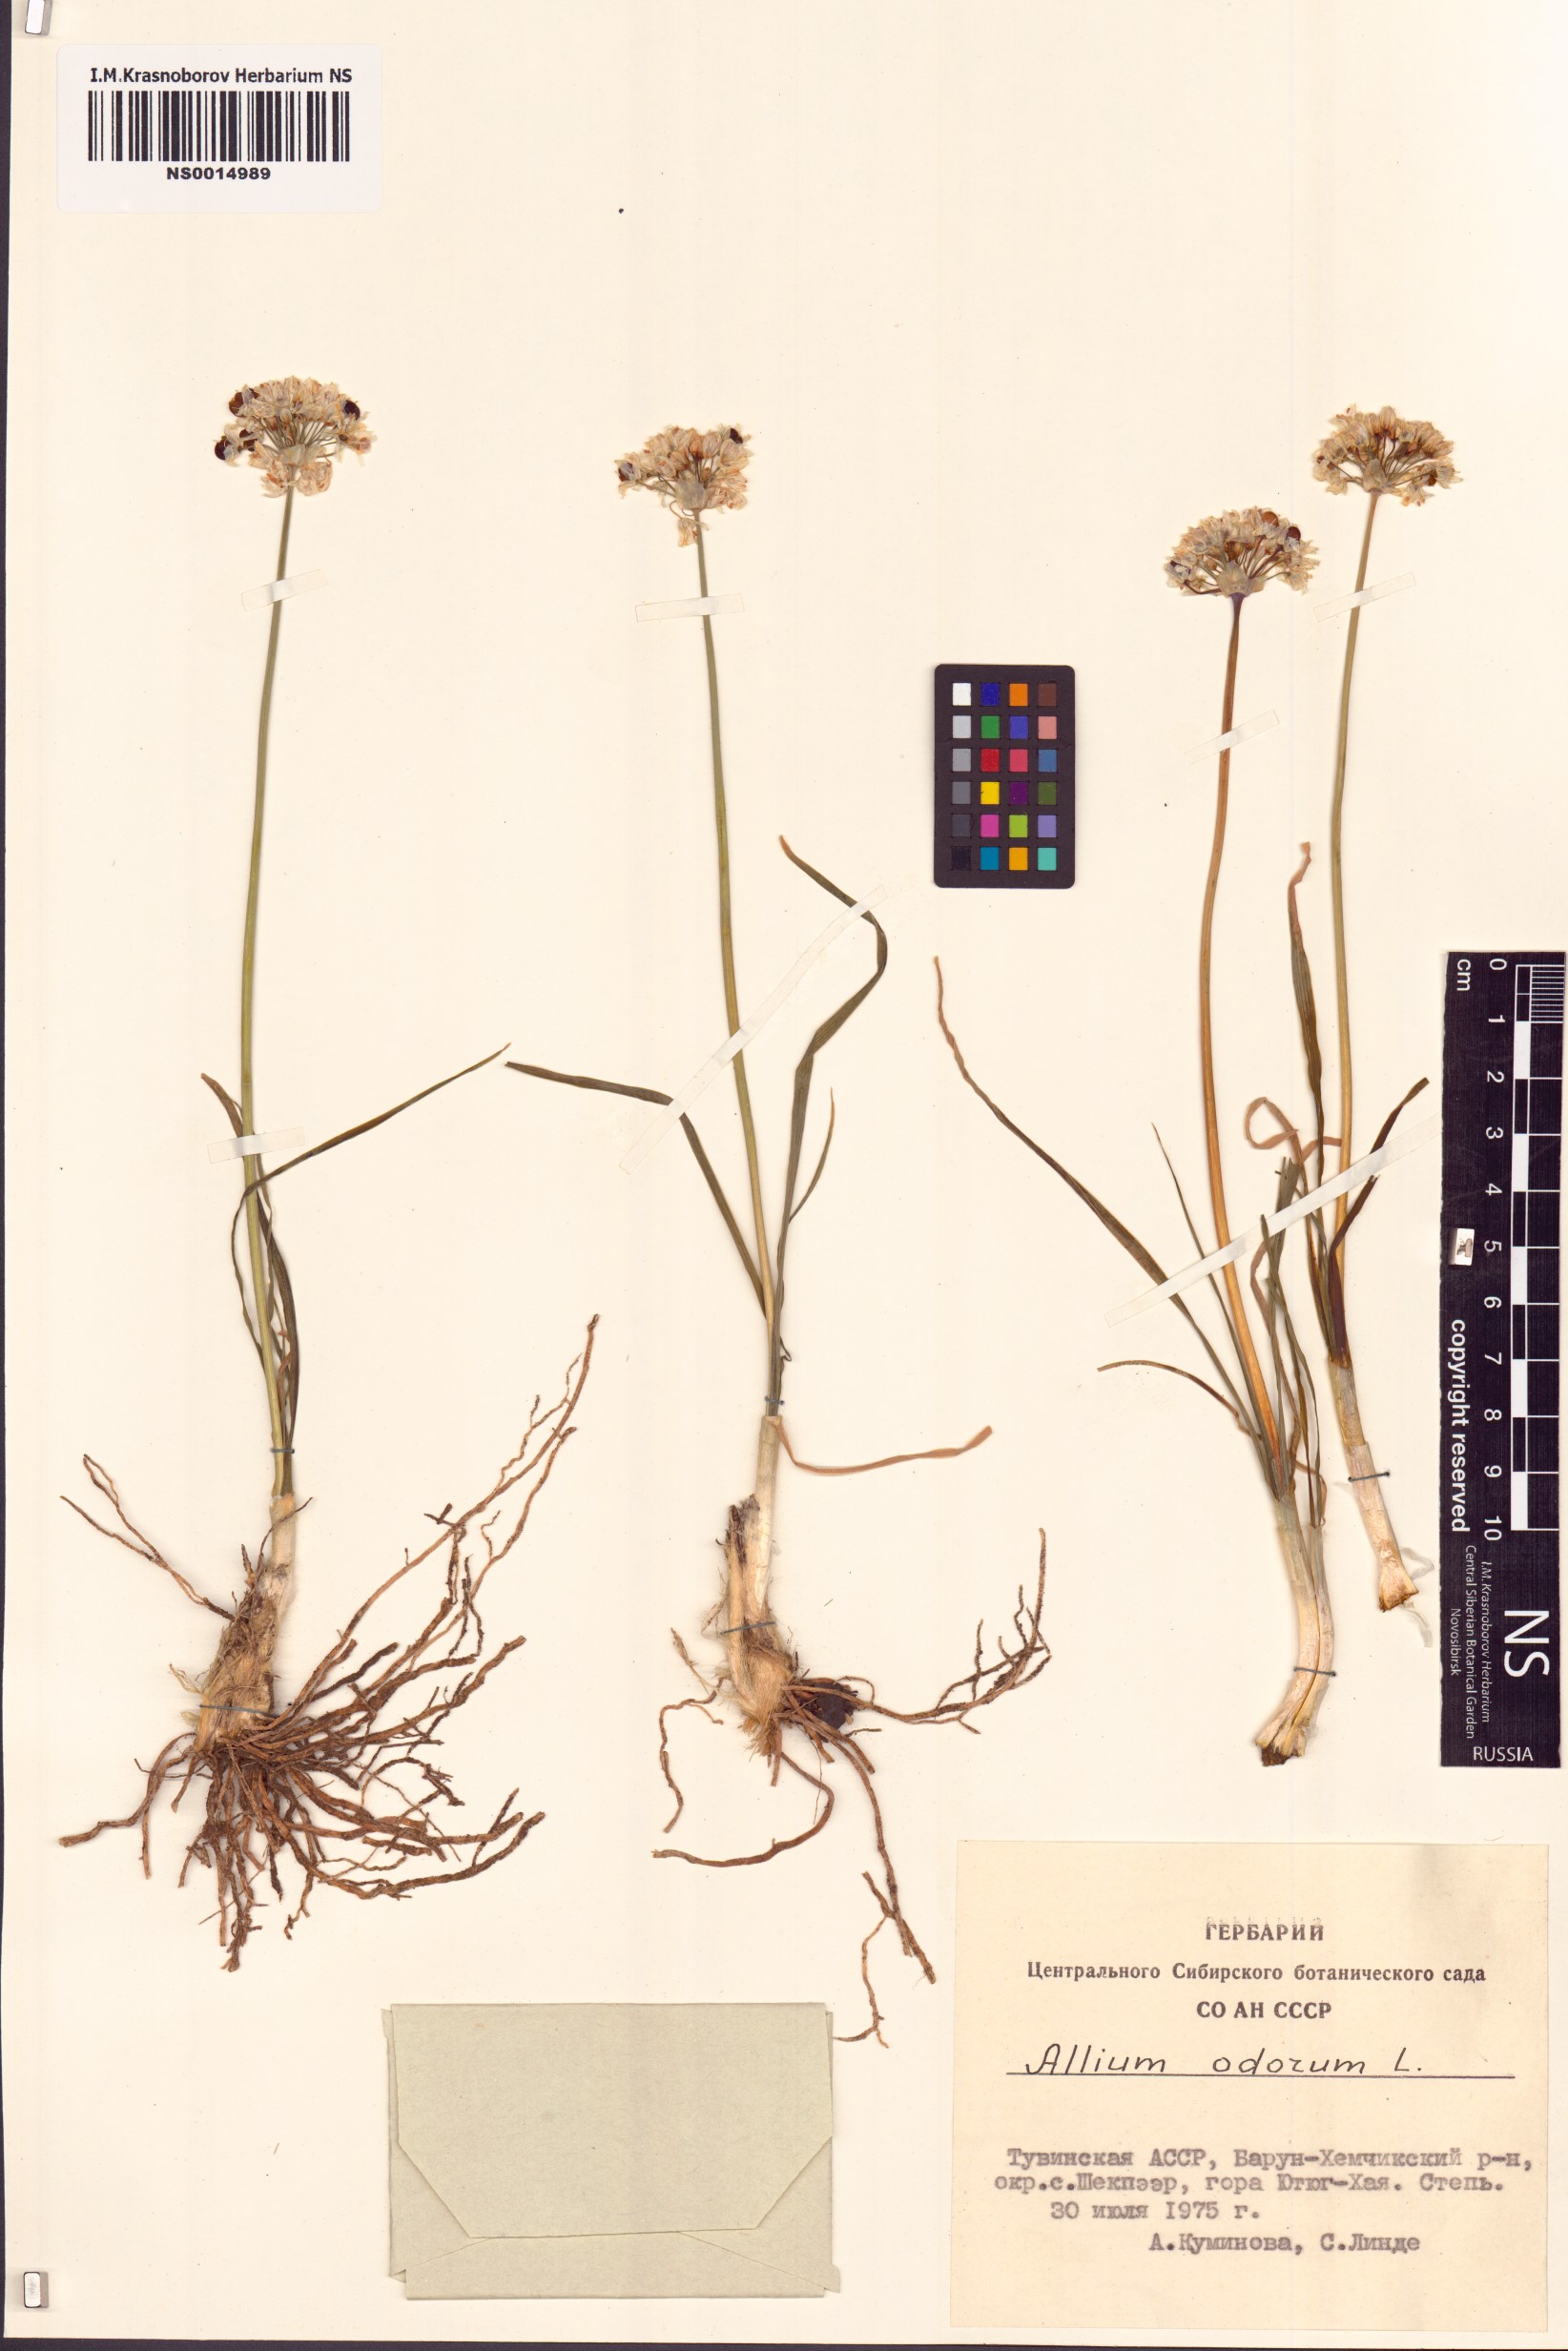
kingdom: Plantae
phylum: Tracheophyta
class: Liliopsida
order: Asparagales
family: Amaryllidaceae
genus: Allium
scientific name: Allium ramosum
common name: Fragrant garlic
